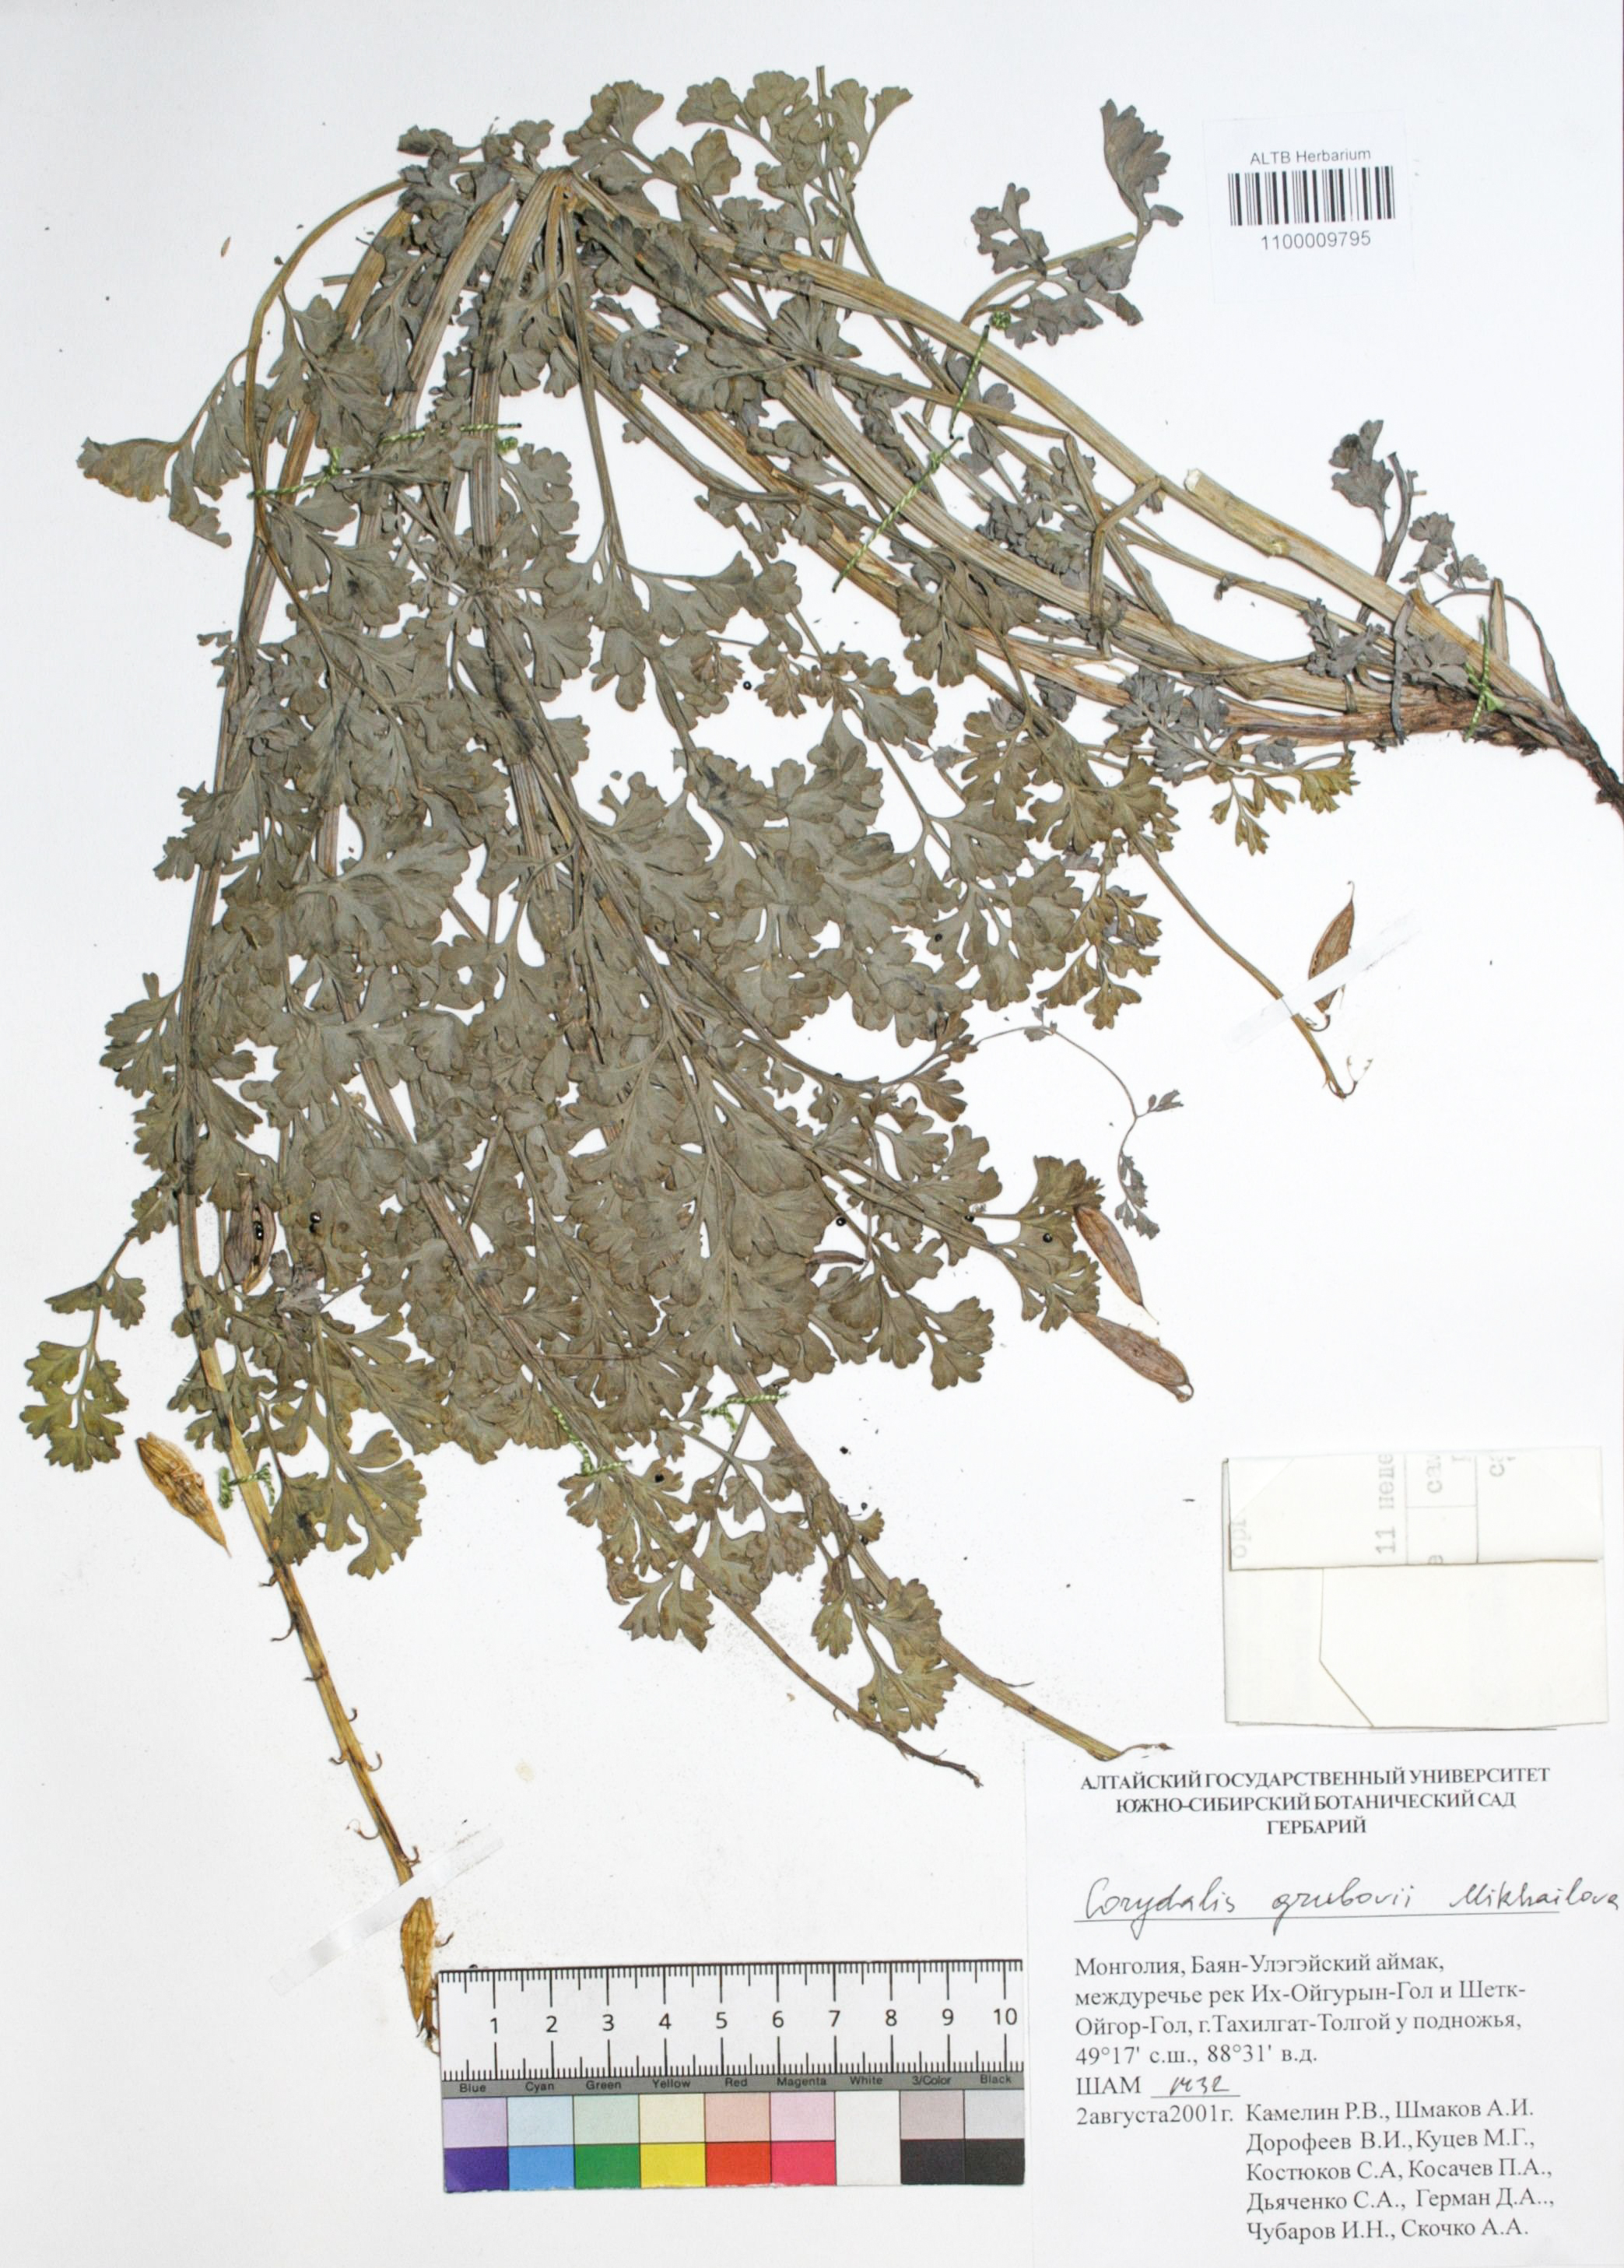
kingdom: Plantae
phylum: Tracheophyta
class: Magnoliopsida
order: Ranunculales
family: Papaveraceae
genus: Corydalis
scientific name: Corydalis stricta
